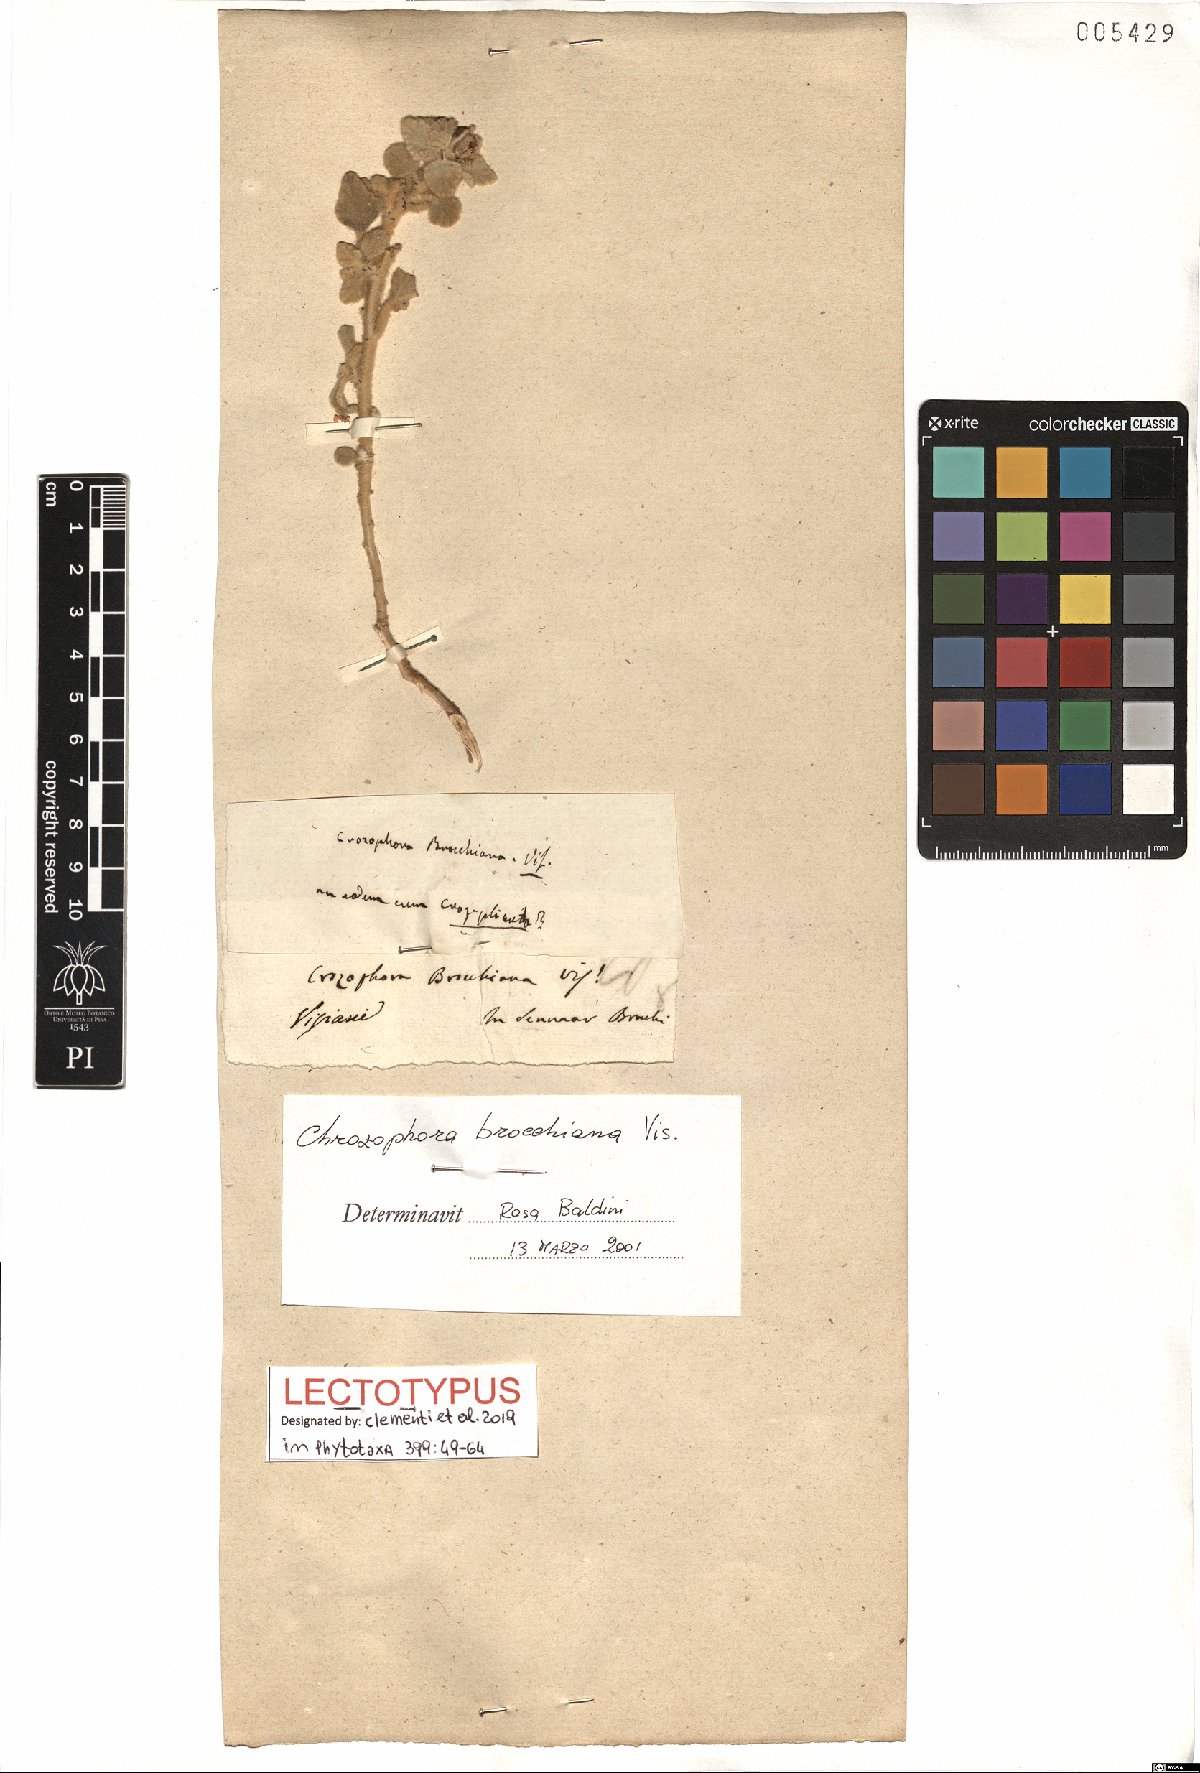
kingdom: Plantae
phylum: Tracheophyta
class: Magnoliopsida
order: Malpighiales
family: Euphorbiaceae
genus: Chrozophora
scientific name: Chrozophora brocchiana
